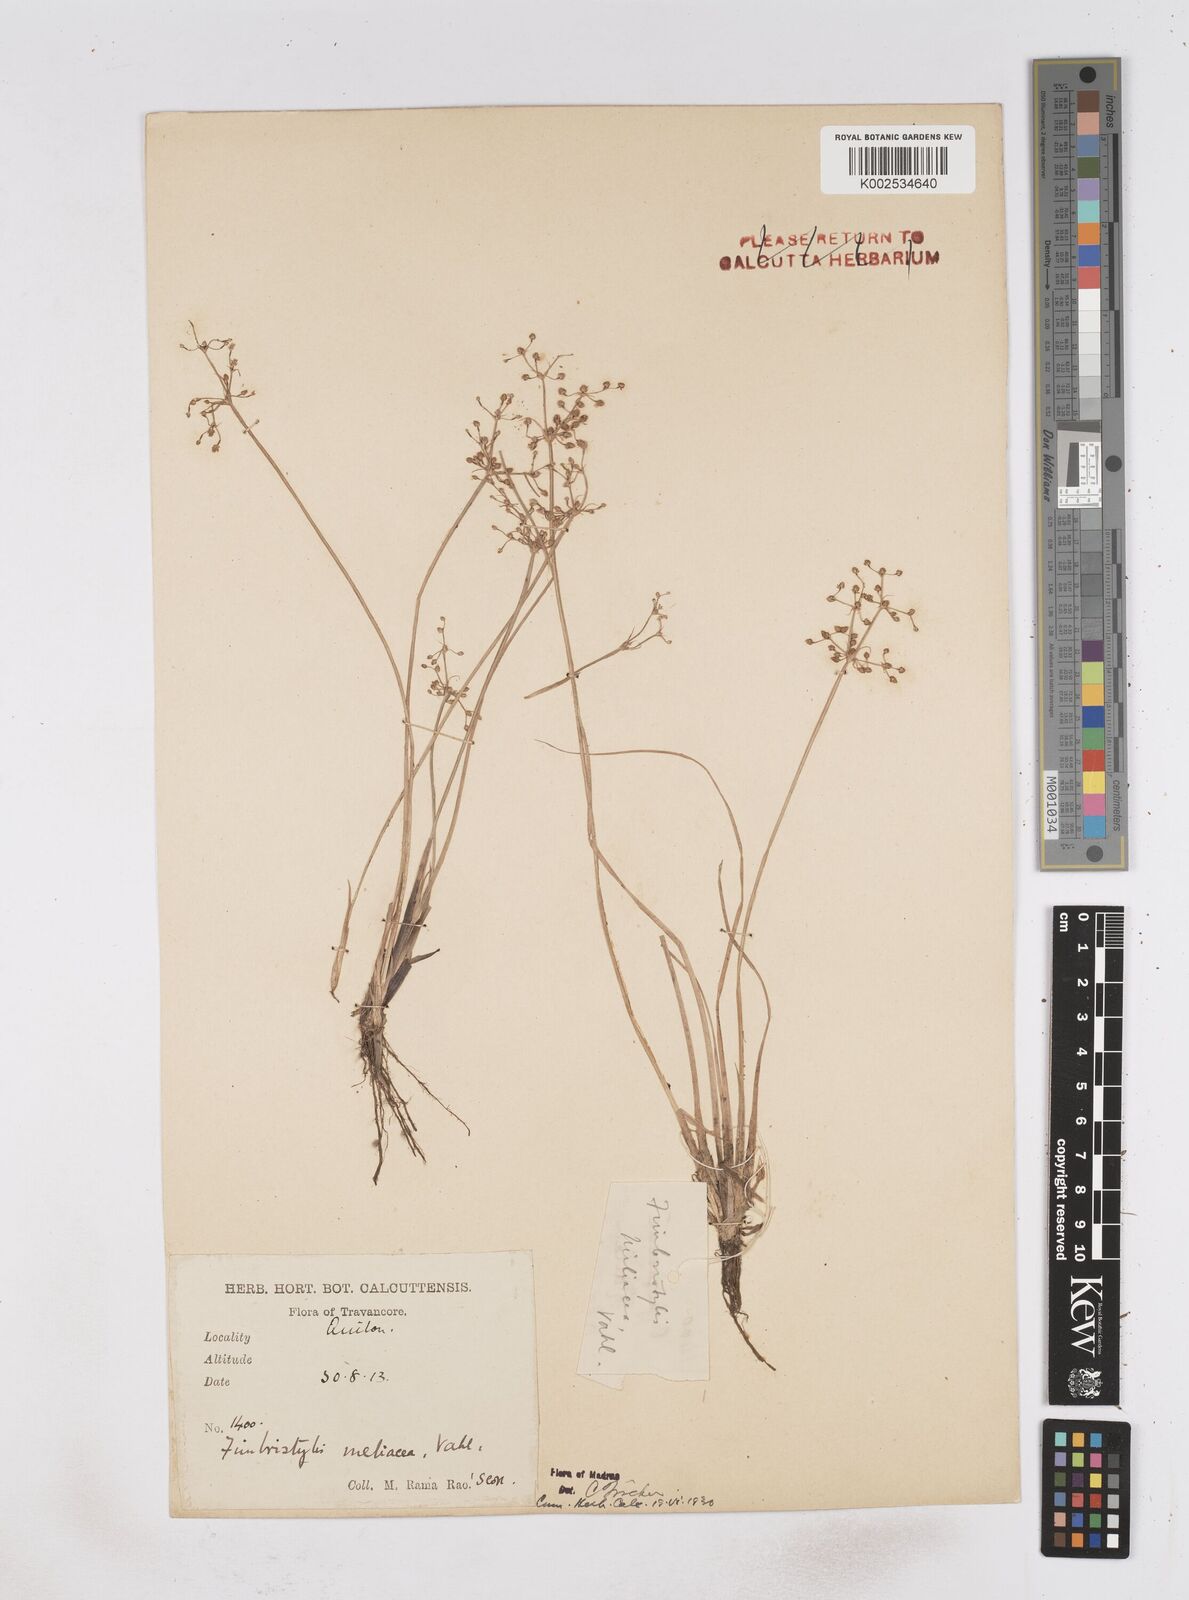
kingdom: Plantae
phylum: Tracheophyta
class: Liliopsida
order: Poales
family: Cyperaceae
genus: Fimbristylis
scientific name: Fimbristylis littoralis
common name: Fimbry
